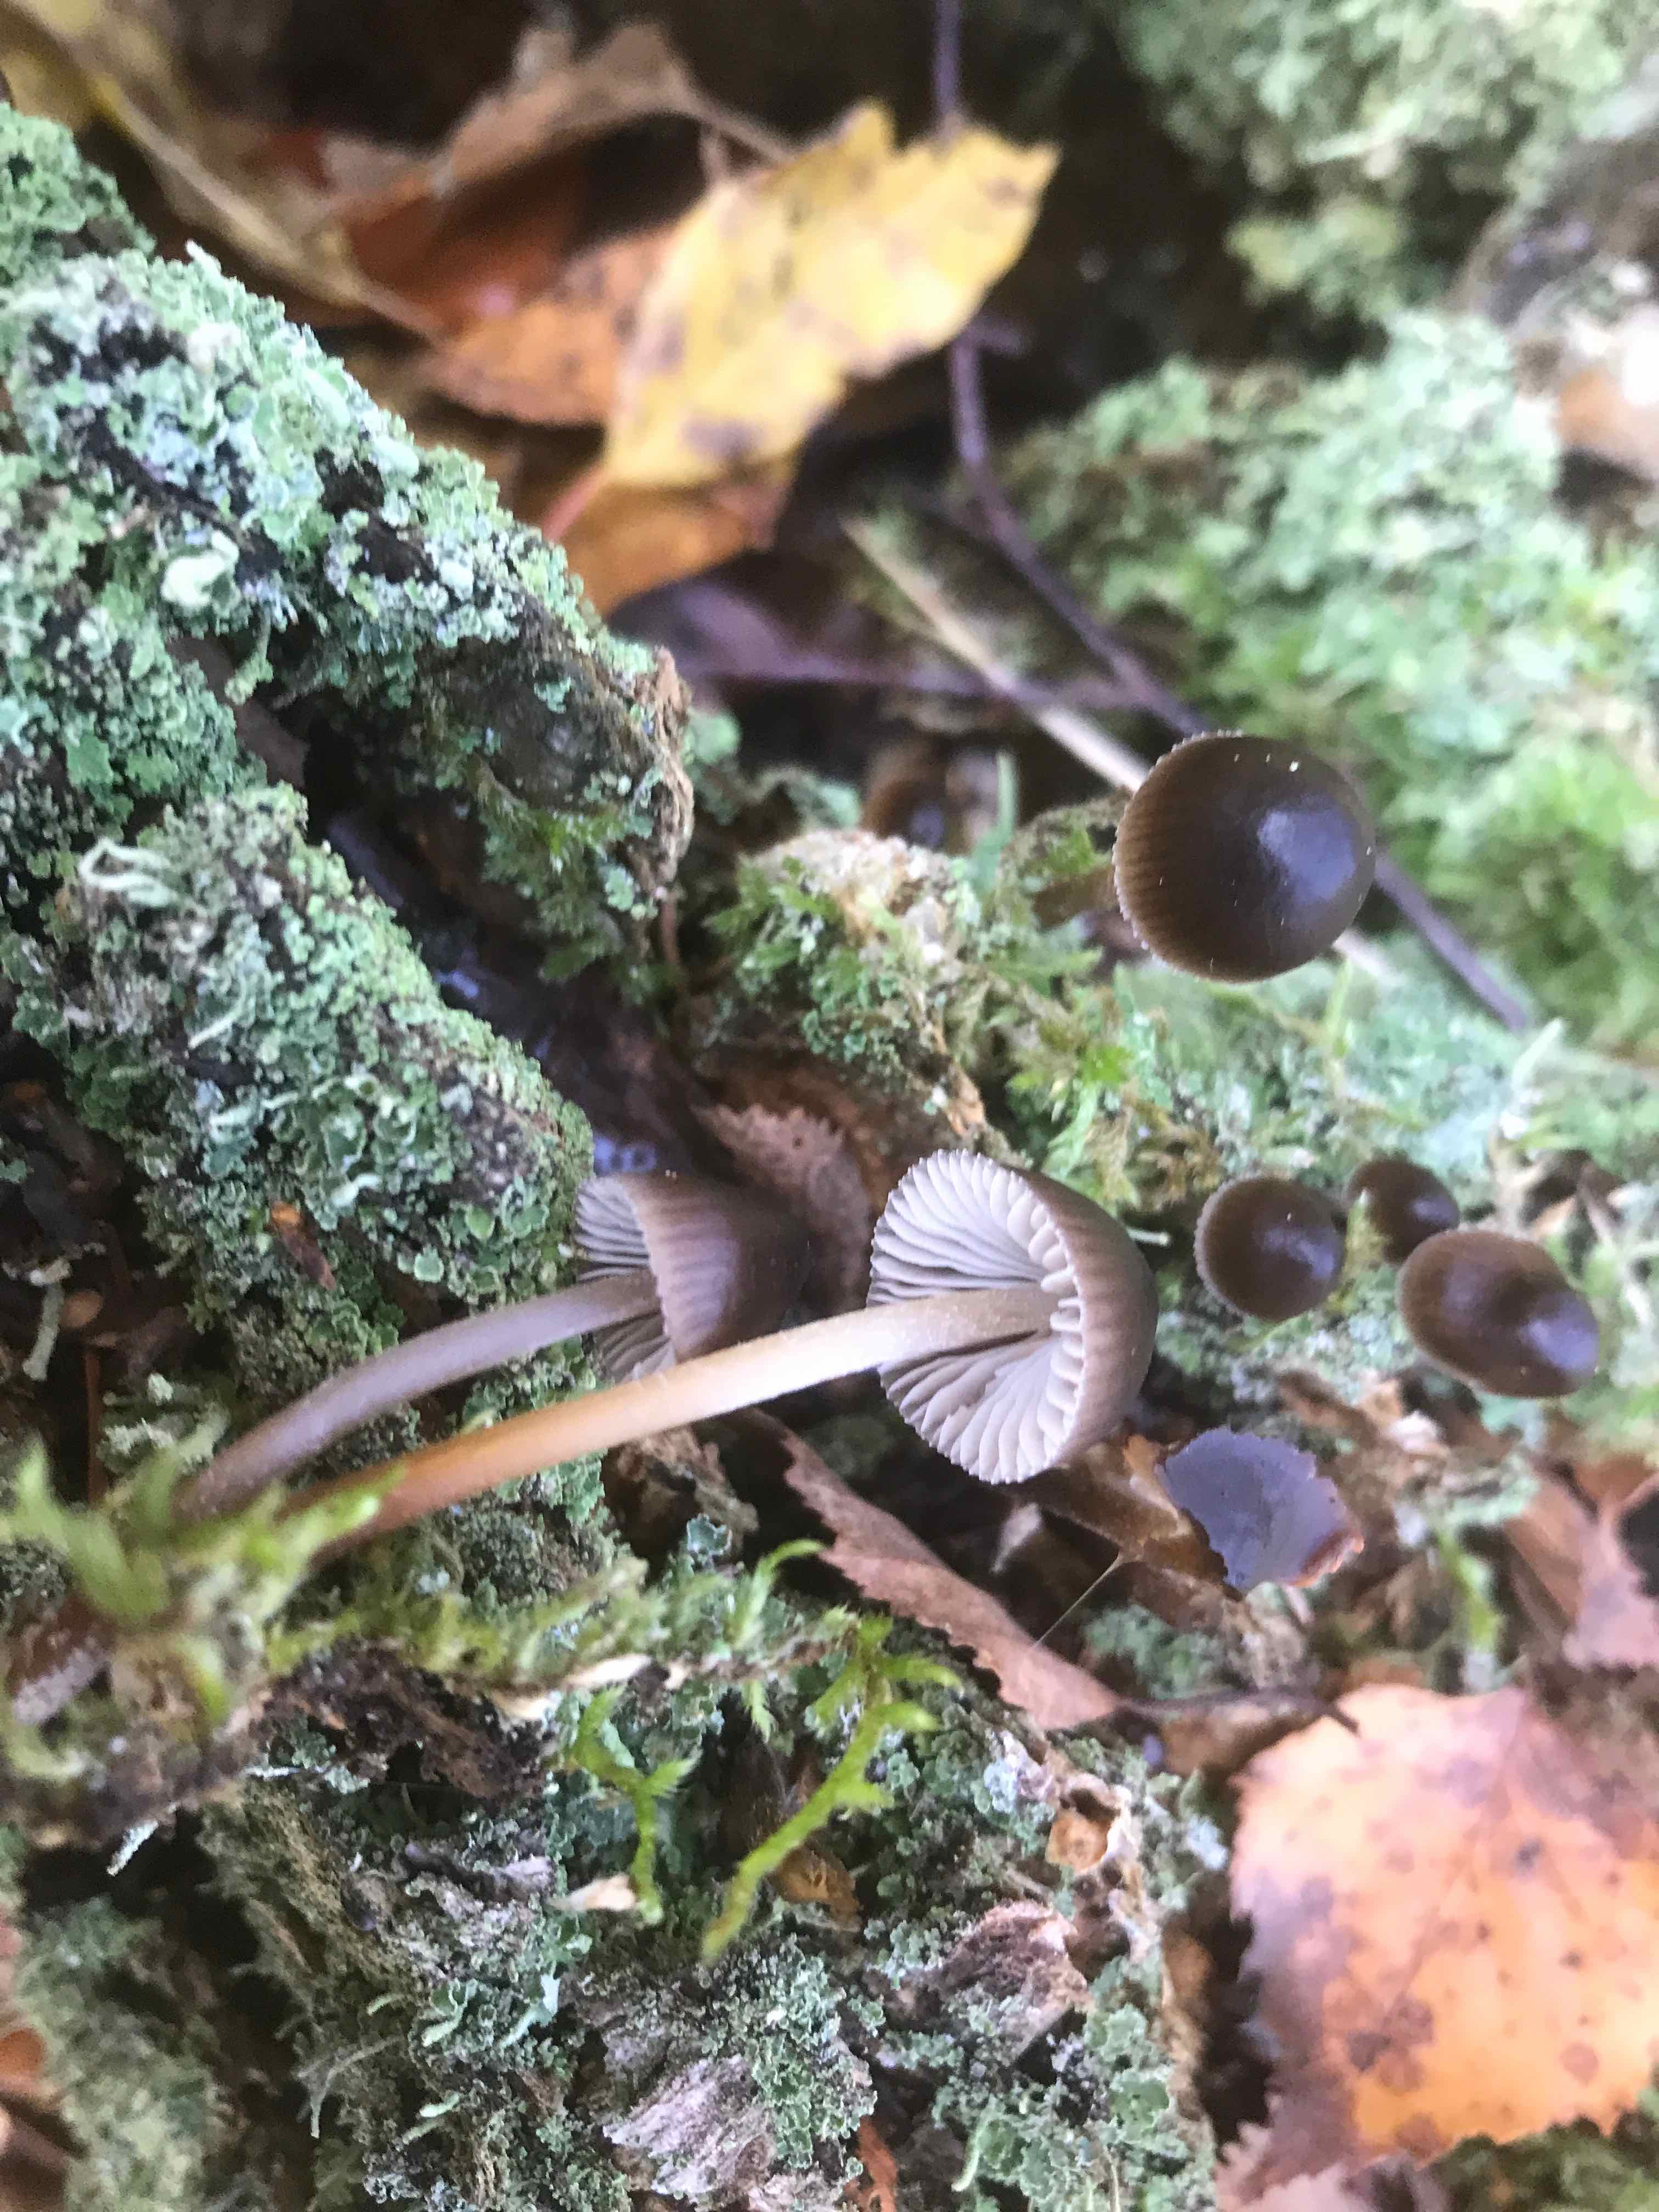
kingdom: Fungi
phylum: Basidiomycota
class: Agaricomycetes
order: Agaricales
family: Mycenaceae
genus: Mycena
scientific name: Mycena inclinata
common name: nikkende huesvamp
